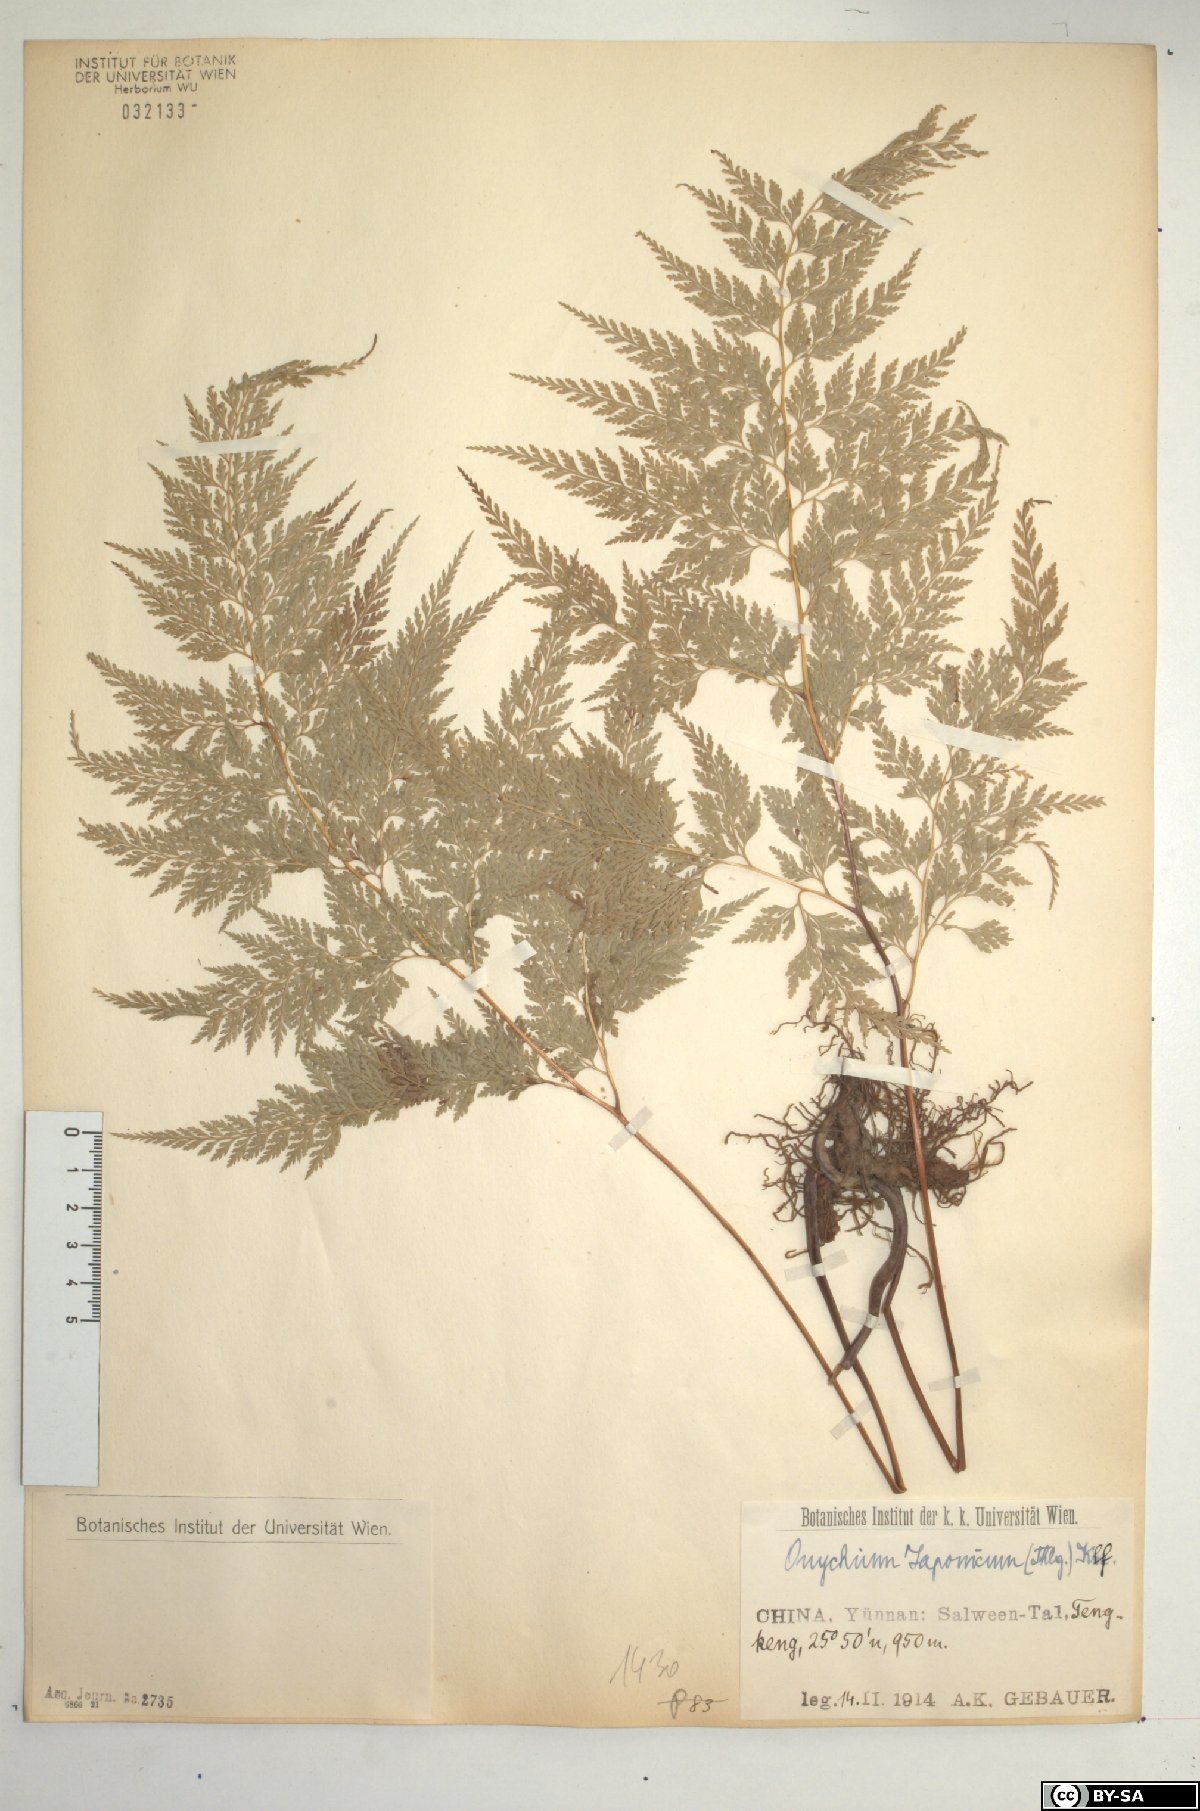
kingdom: Plantae
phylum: Tracheophyta
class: Polypodiopsida
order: Polypodiales
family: Pteridaceae
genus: Onychium
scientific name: Onychium japonicum
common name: Carrot fern
